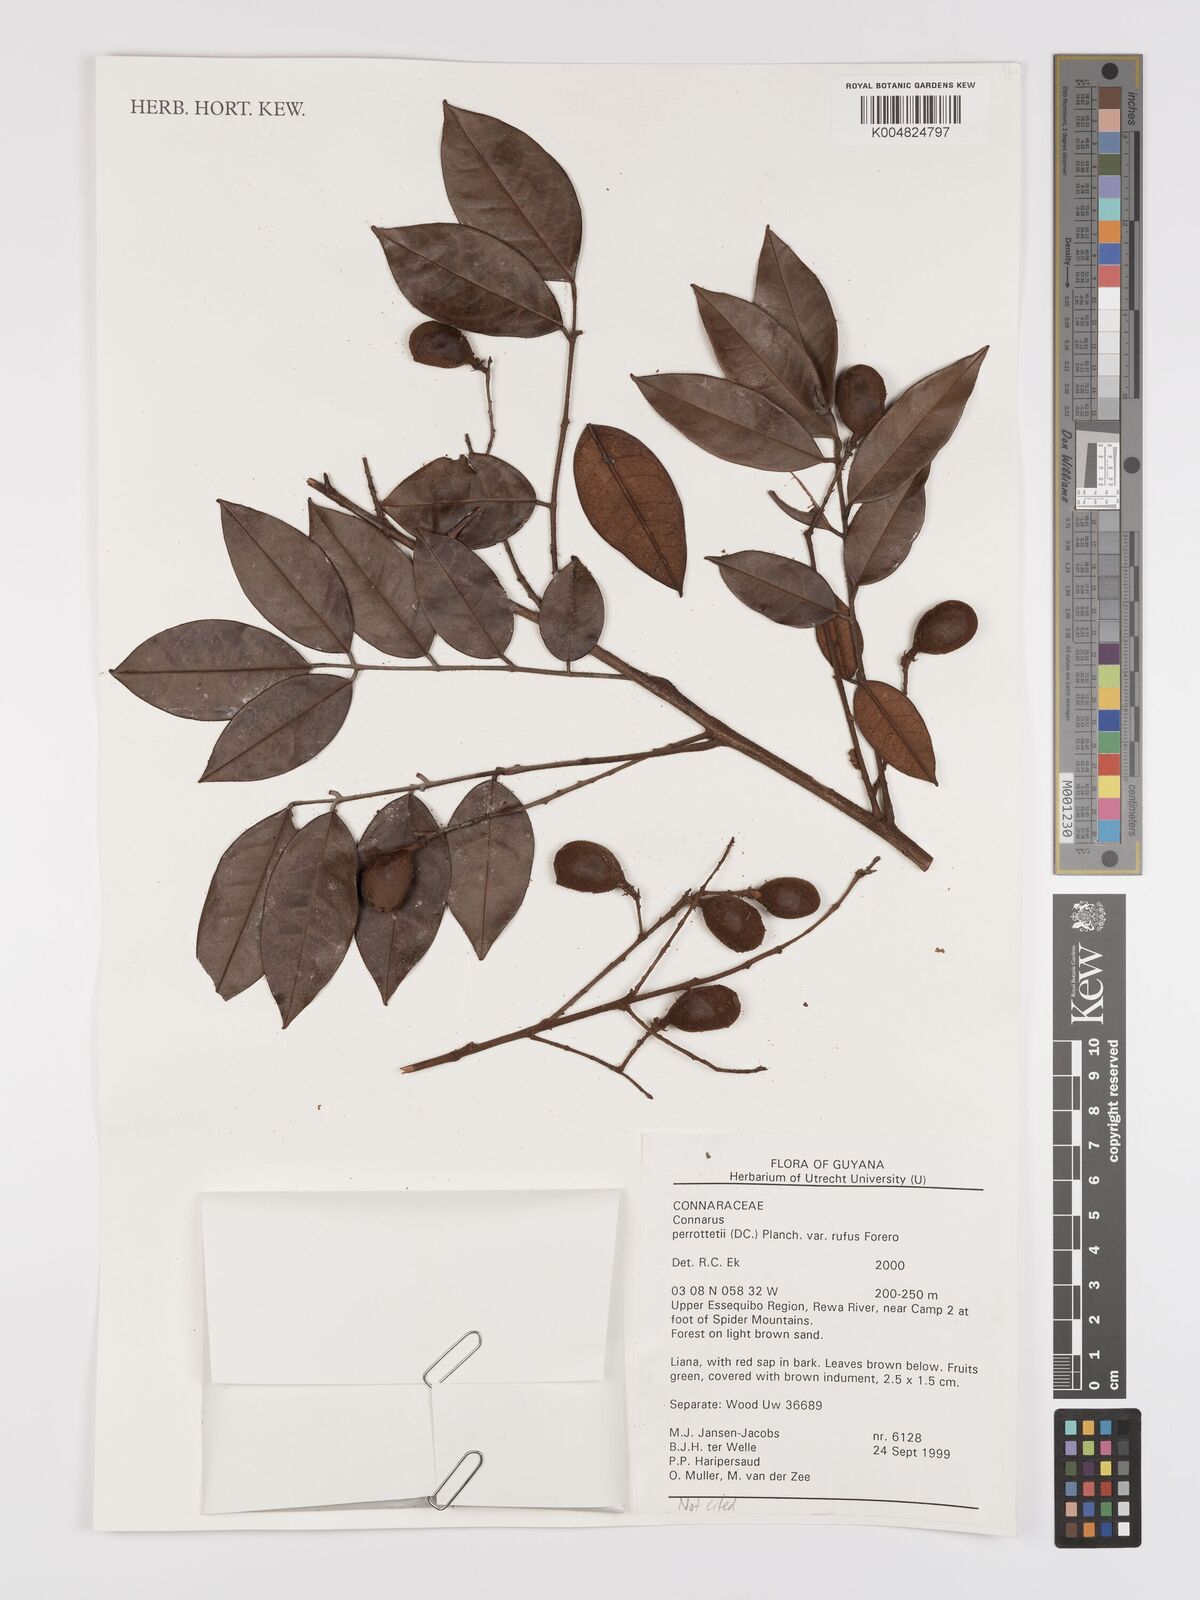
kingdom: Plantae
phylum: Tracheophyta
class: Magnoliopsida
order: Oxalidales
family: Connaraceae
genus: Connarus
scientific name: Connarus perrottetii
